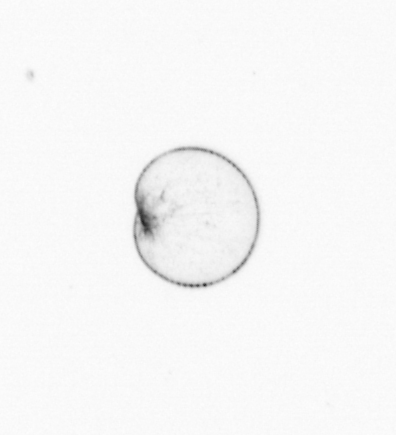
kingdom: Chromista
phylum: Myzozoa
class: Dinophyceae
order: Noctilucales
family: Noctilucaceae
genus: Noctiluca
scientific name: Noctiluca scintillans
